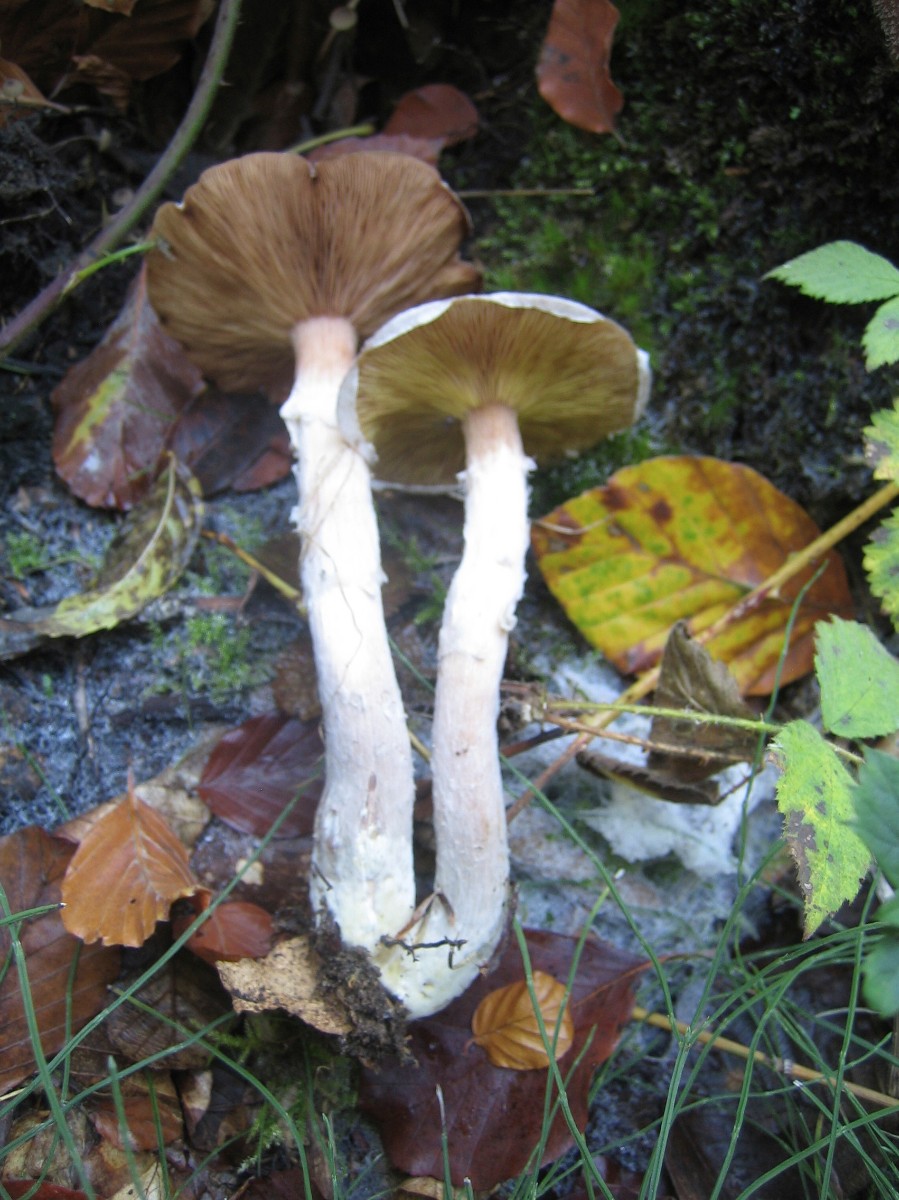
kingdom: Fungi
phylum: Basidiomycota
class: Agaricomycetes
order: Agaricales
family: Physalacriaceae
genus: Armillaria
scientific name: Armillaria lutea
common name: køllestokket honningsvamp
